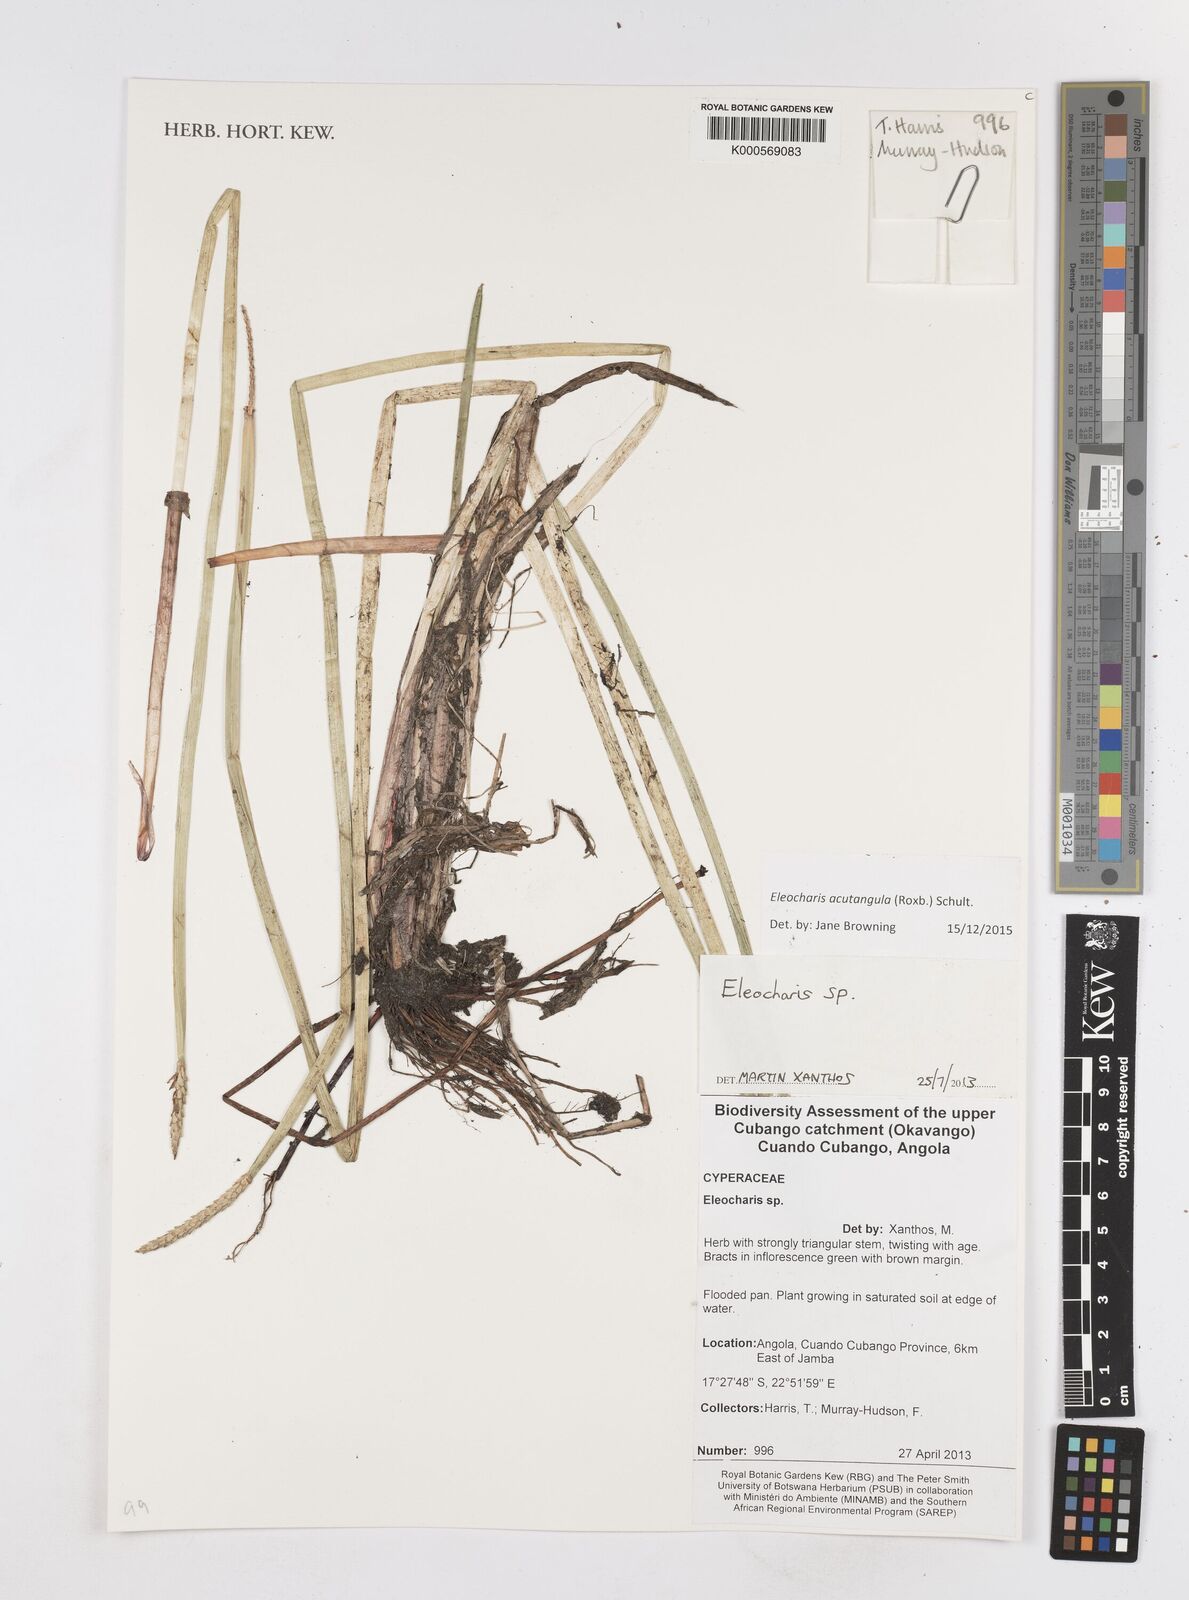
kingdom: Plantae
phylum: Tracheophyta
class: Liliopsida
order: Poales
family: Cyperaceae
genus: Eleocharis
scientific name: Eleocharis acutangula
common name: Acute spikerush
